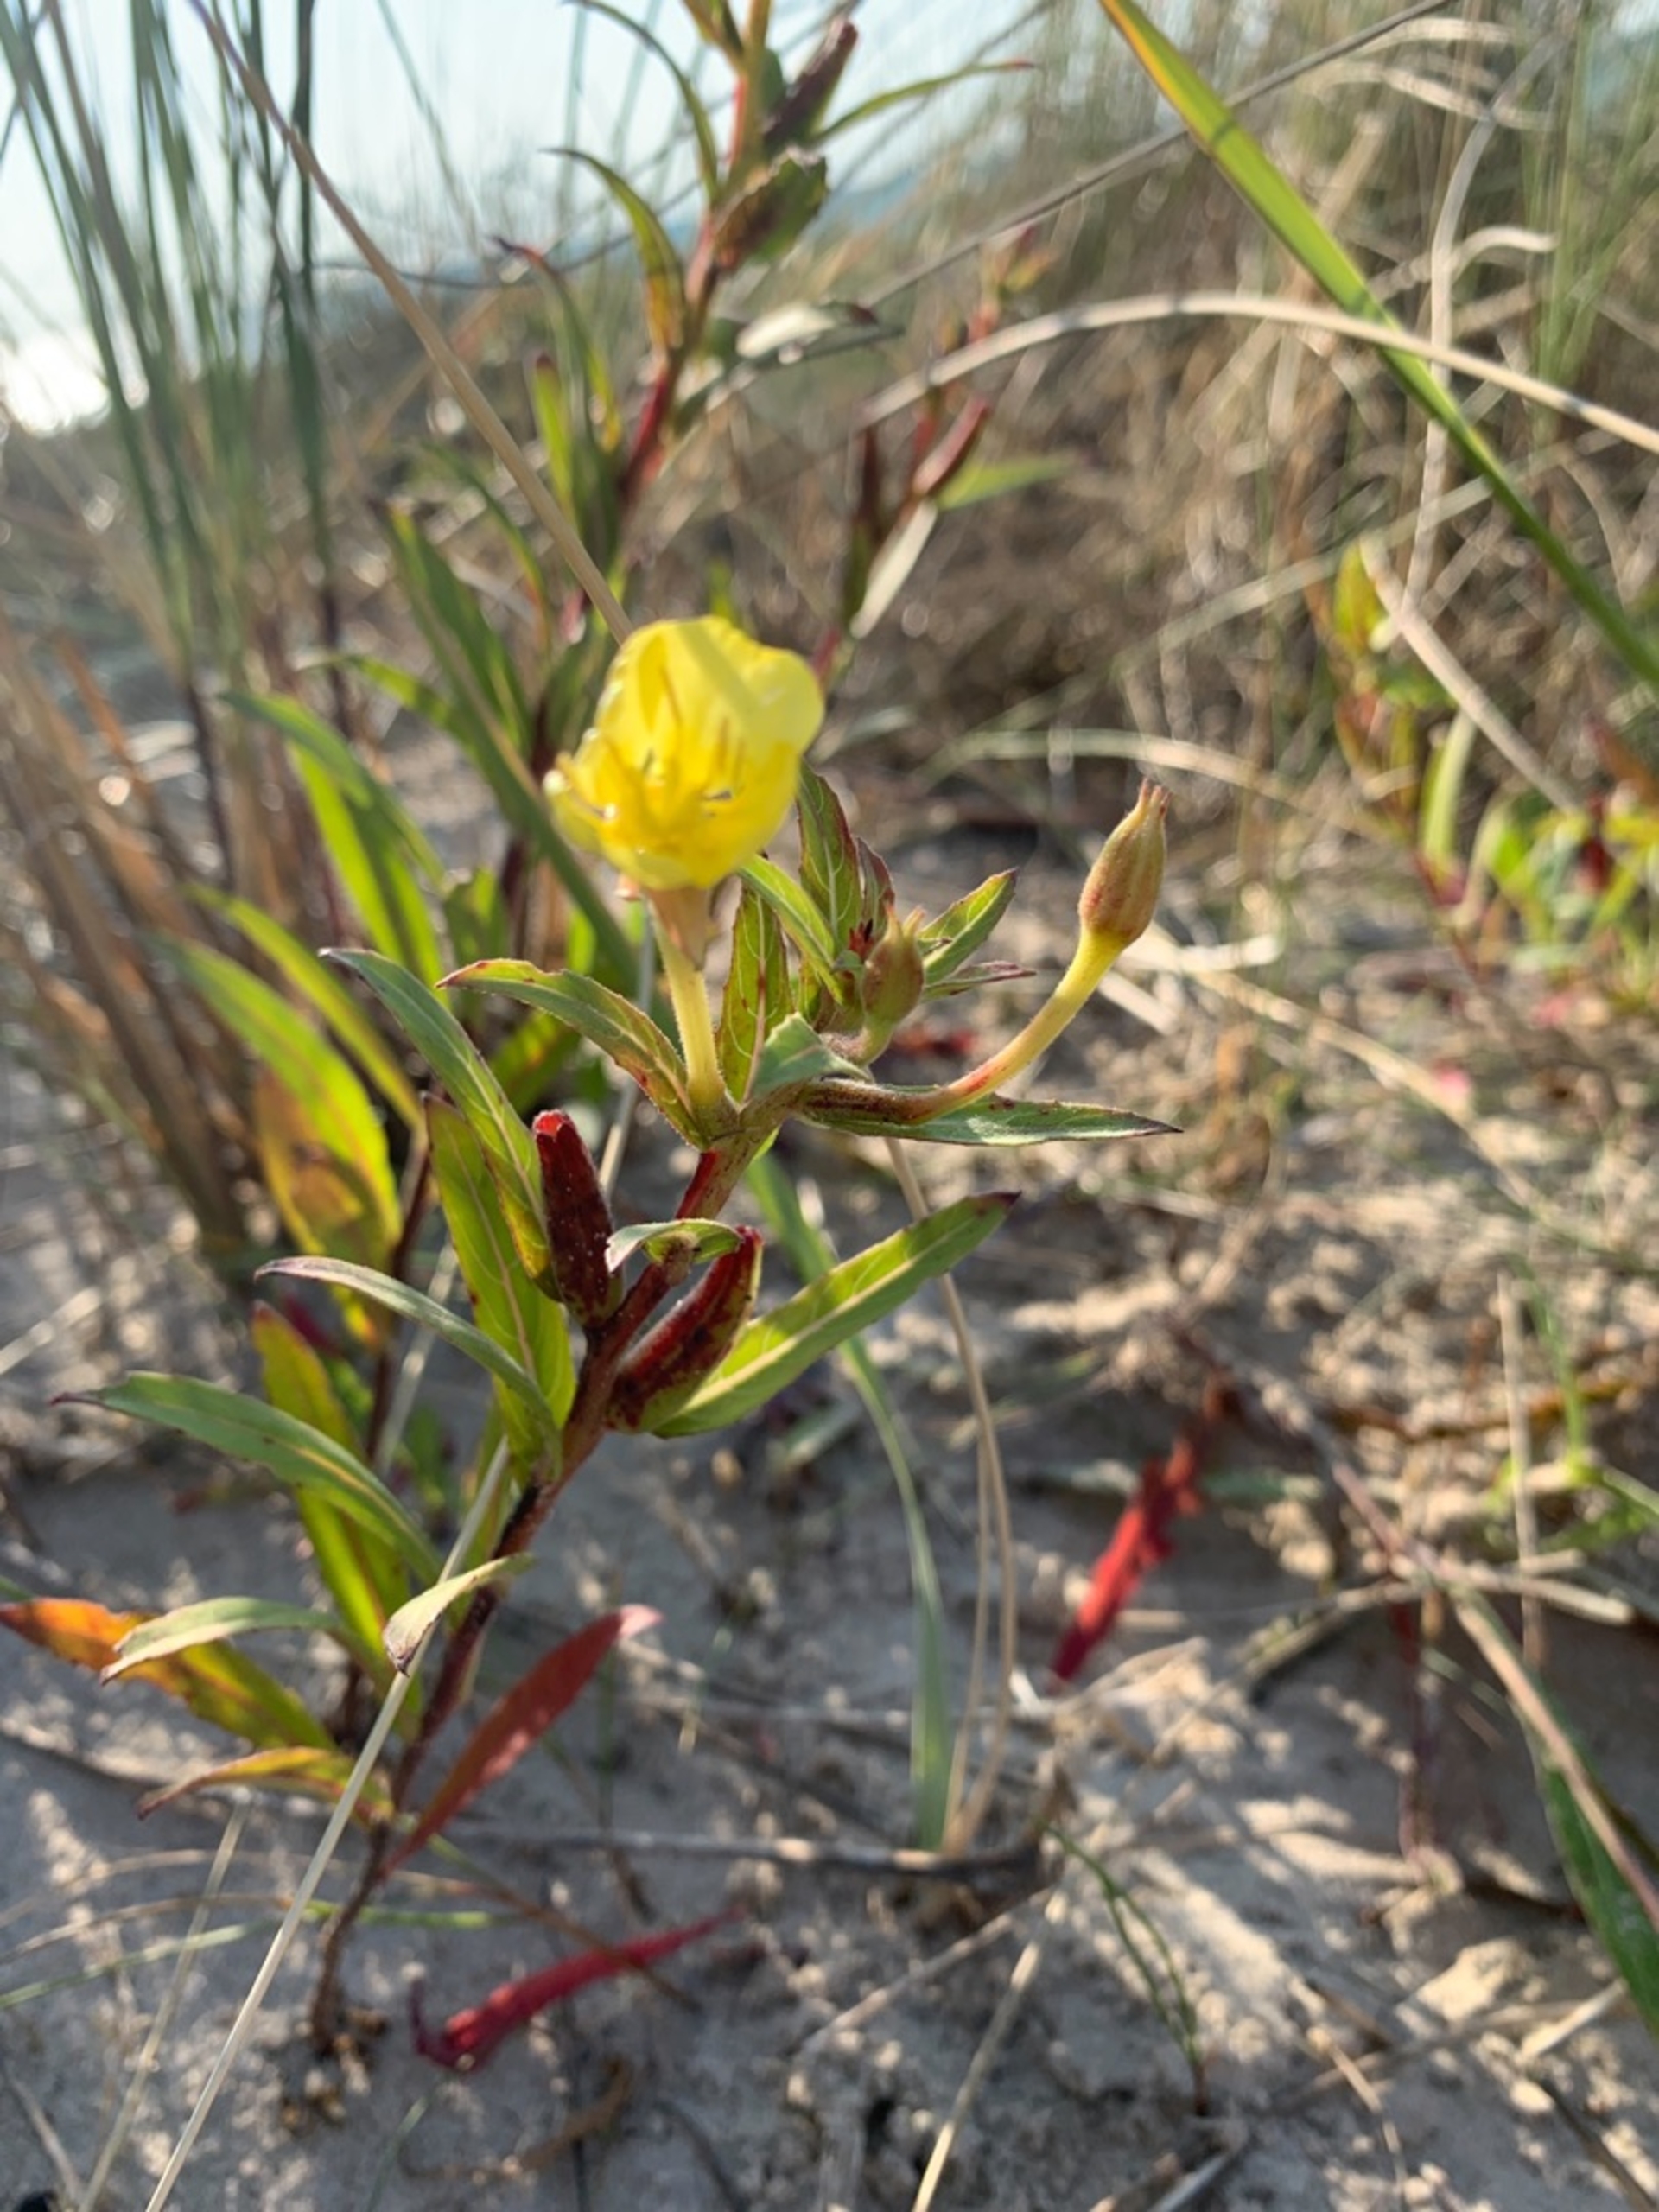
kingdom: Plantae
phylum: Tracheophyta
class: Magnoliopsida
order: Myrtales
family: Onagraceae
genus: Oenothera
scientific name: Oenothera ammophila
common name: Klit-natlys
